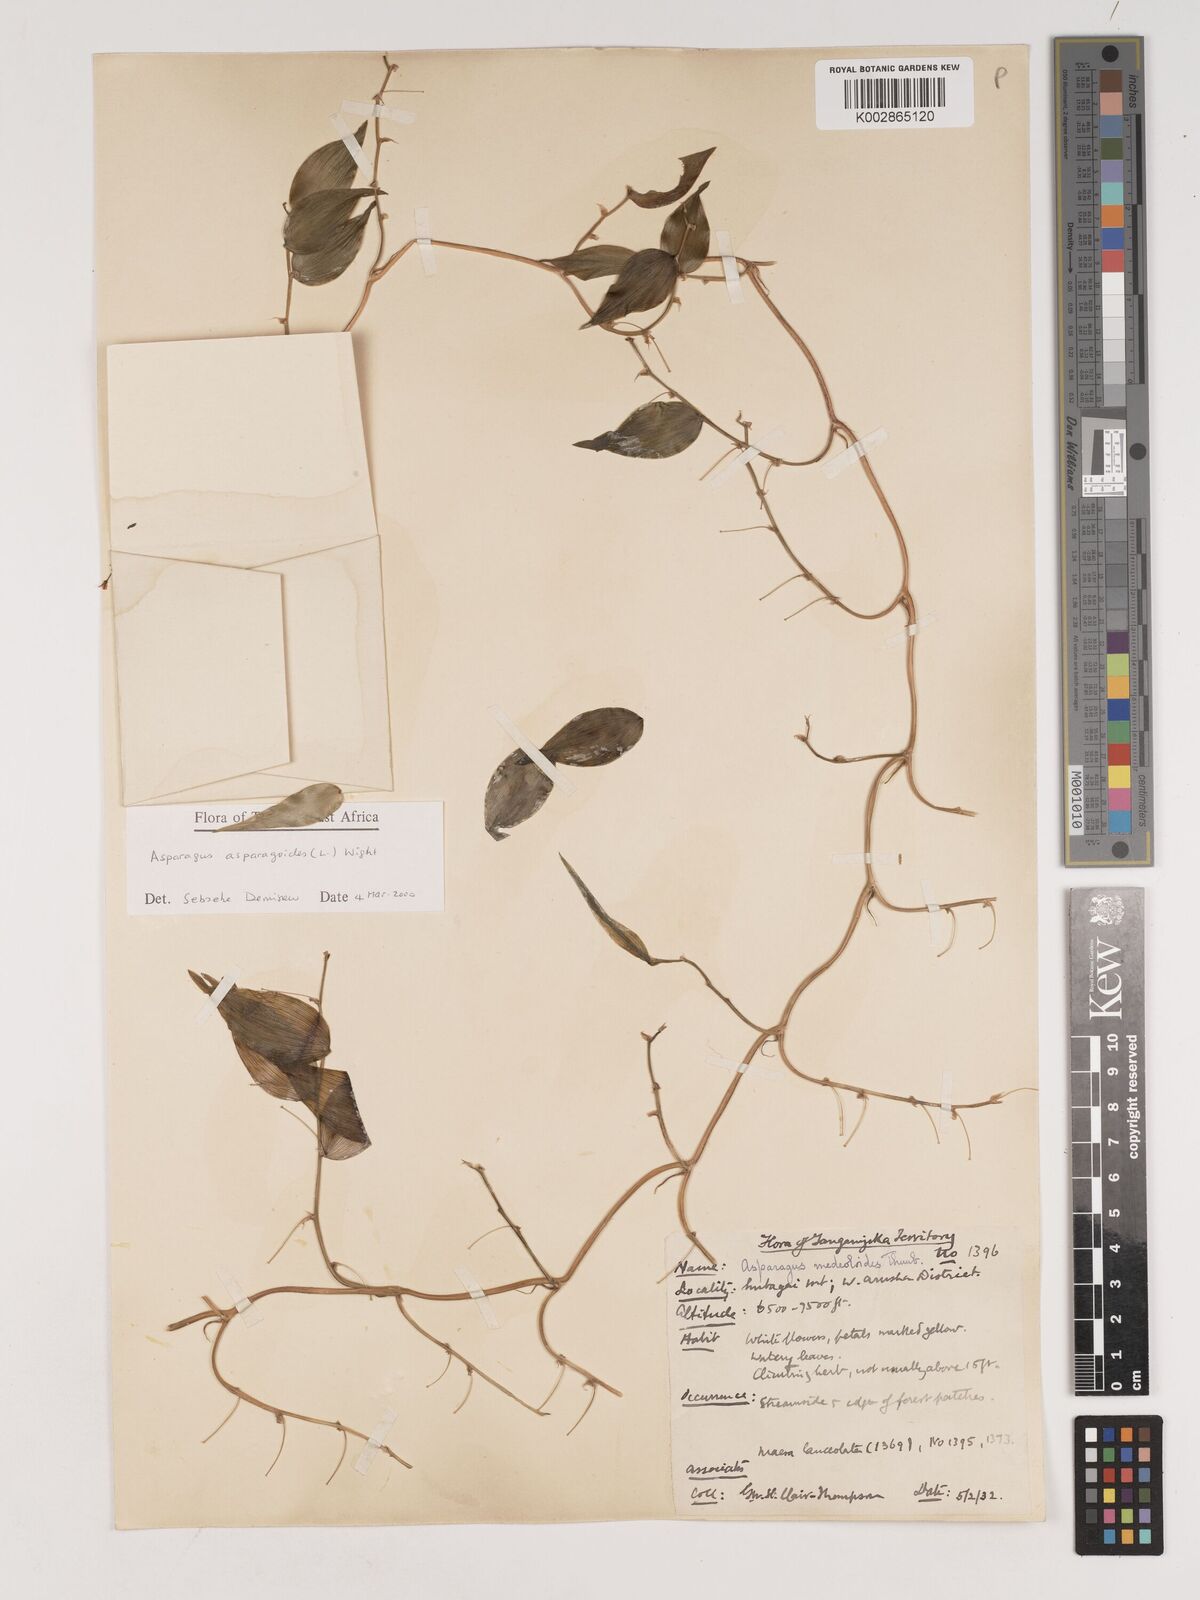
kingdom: Plantae
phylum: Tracheophyta
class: Liliopsida
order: Asparagales
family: Asparagaceae
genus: Asparagus
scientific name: Asparagus asparagoides
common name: African asparagus fern
